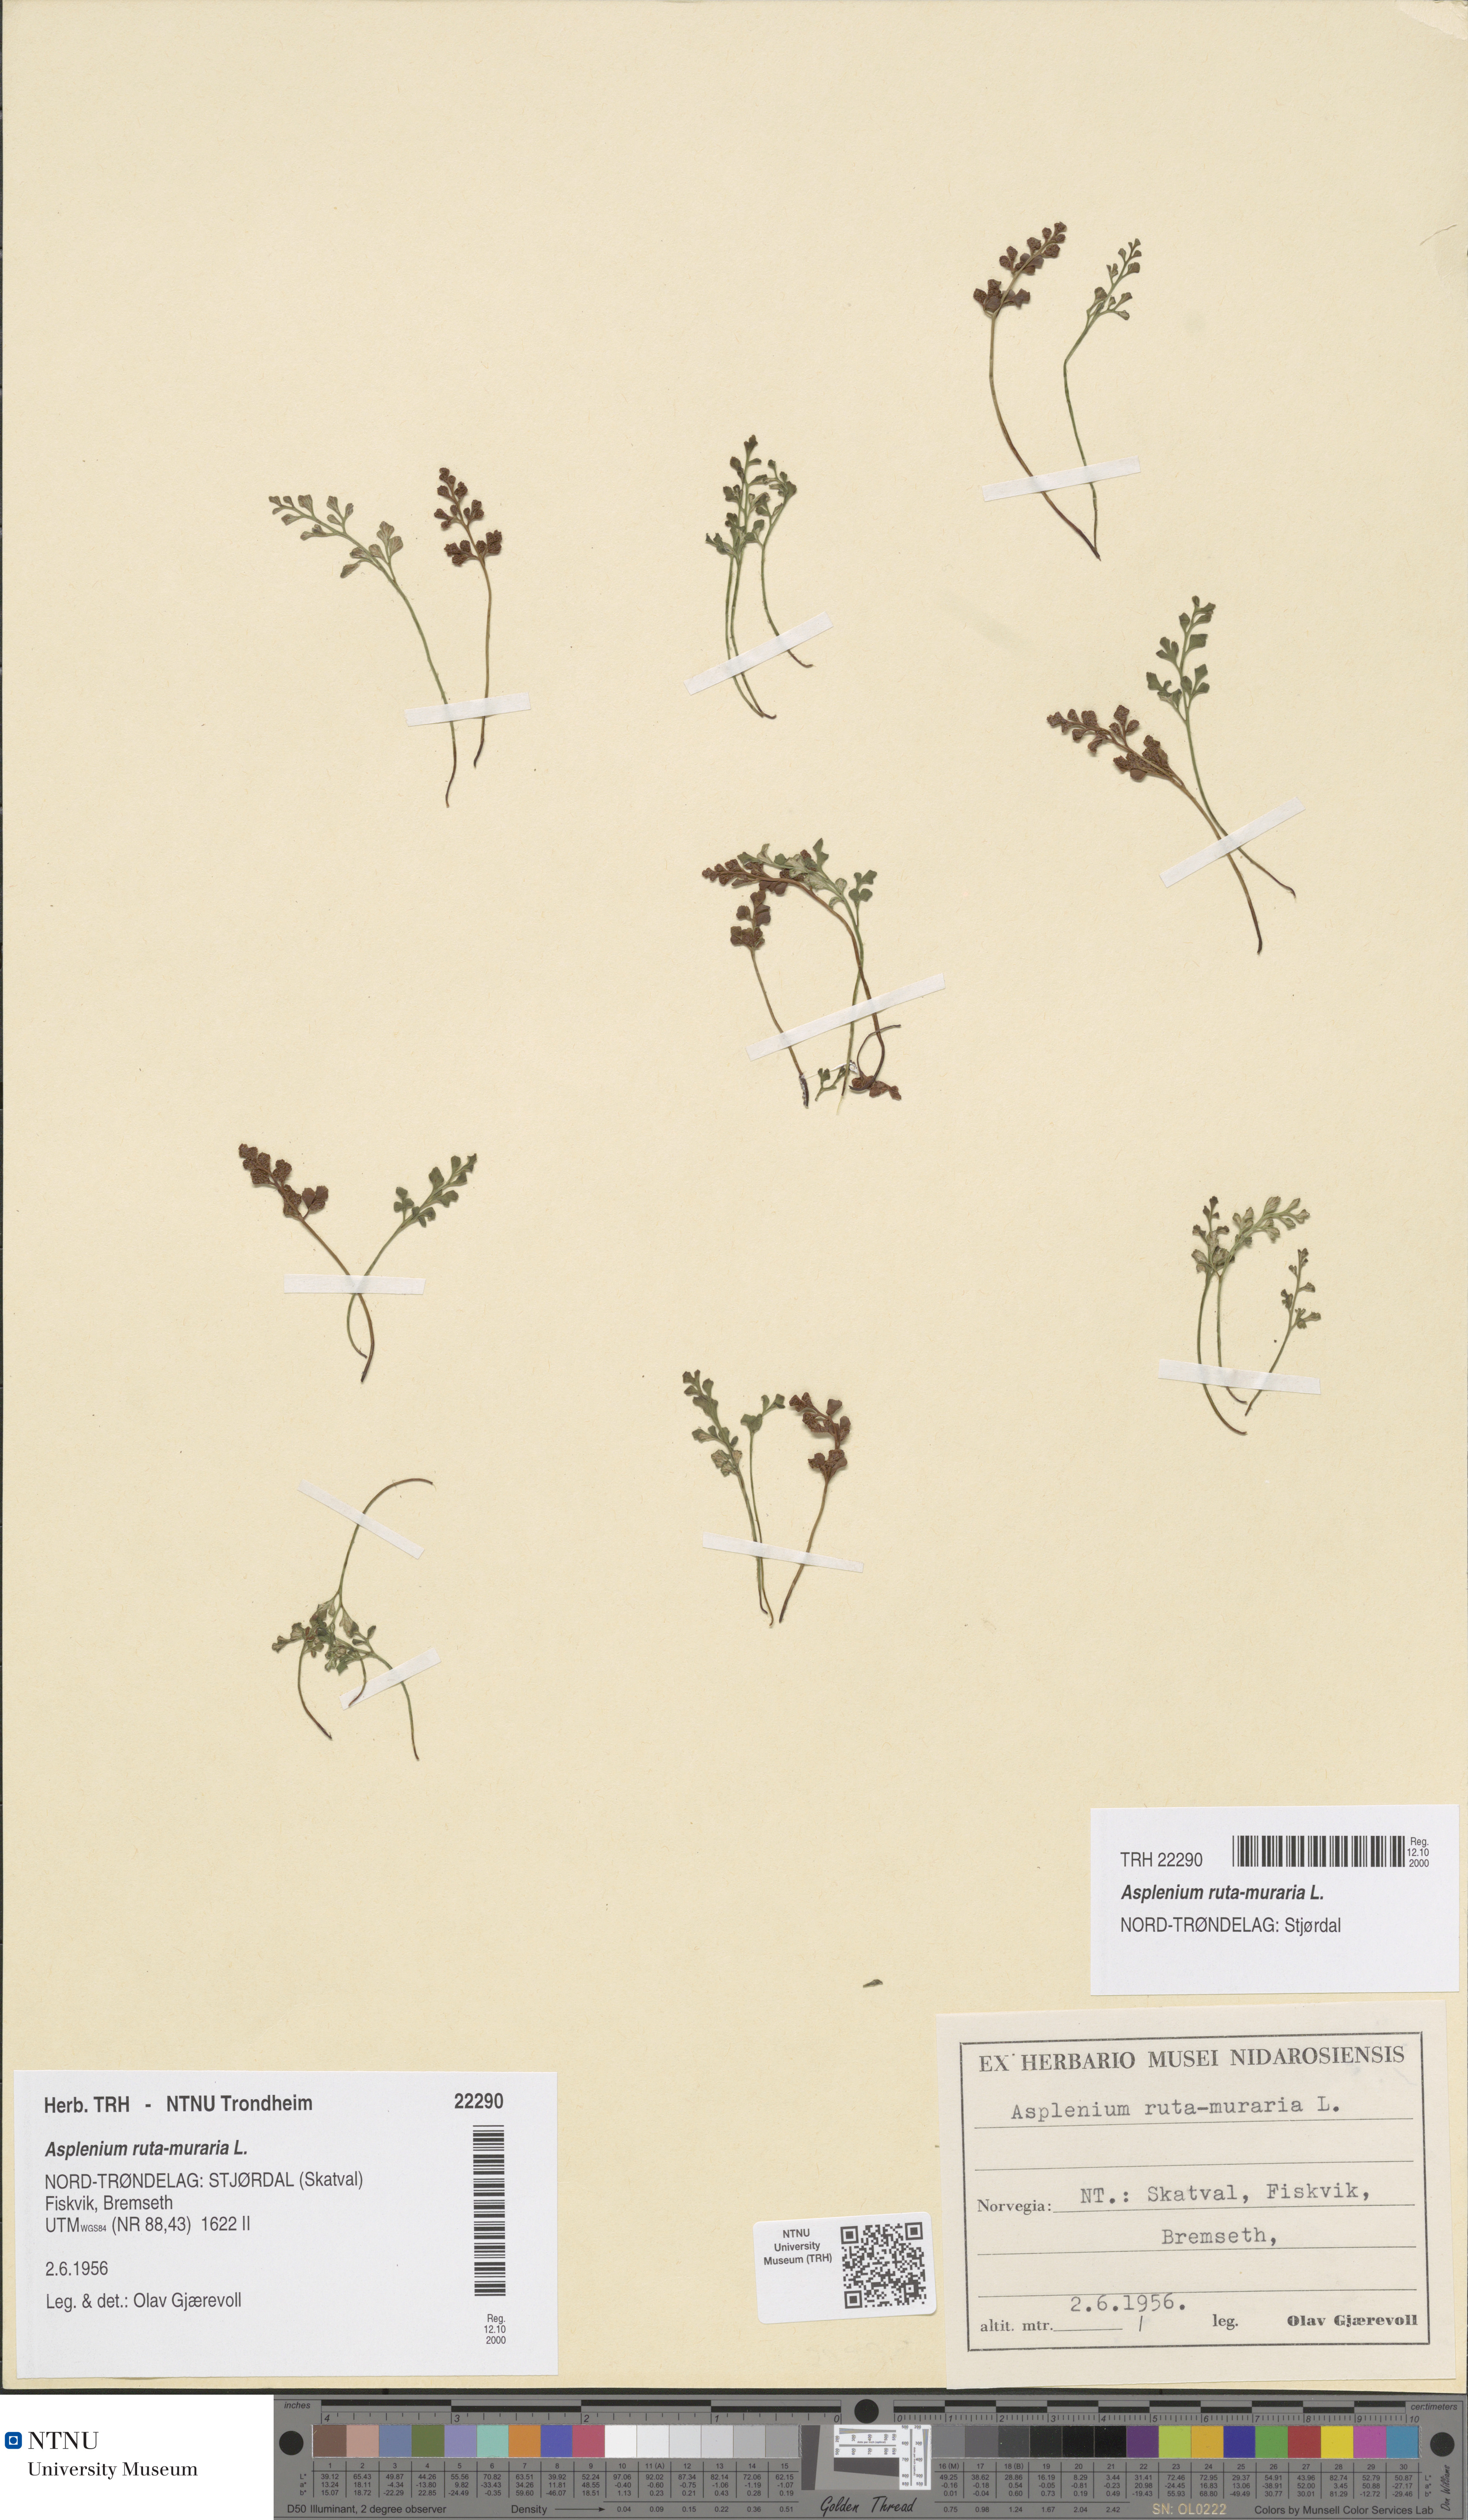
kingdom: Plantae
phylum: Tracheophyta
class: Polypodiopsida
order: Polypodiales
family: Aspleniaceae
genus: Asplenium
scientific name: Asplenium ruta-muraria
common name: Wall-rue
